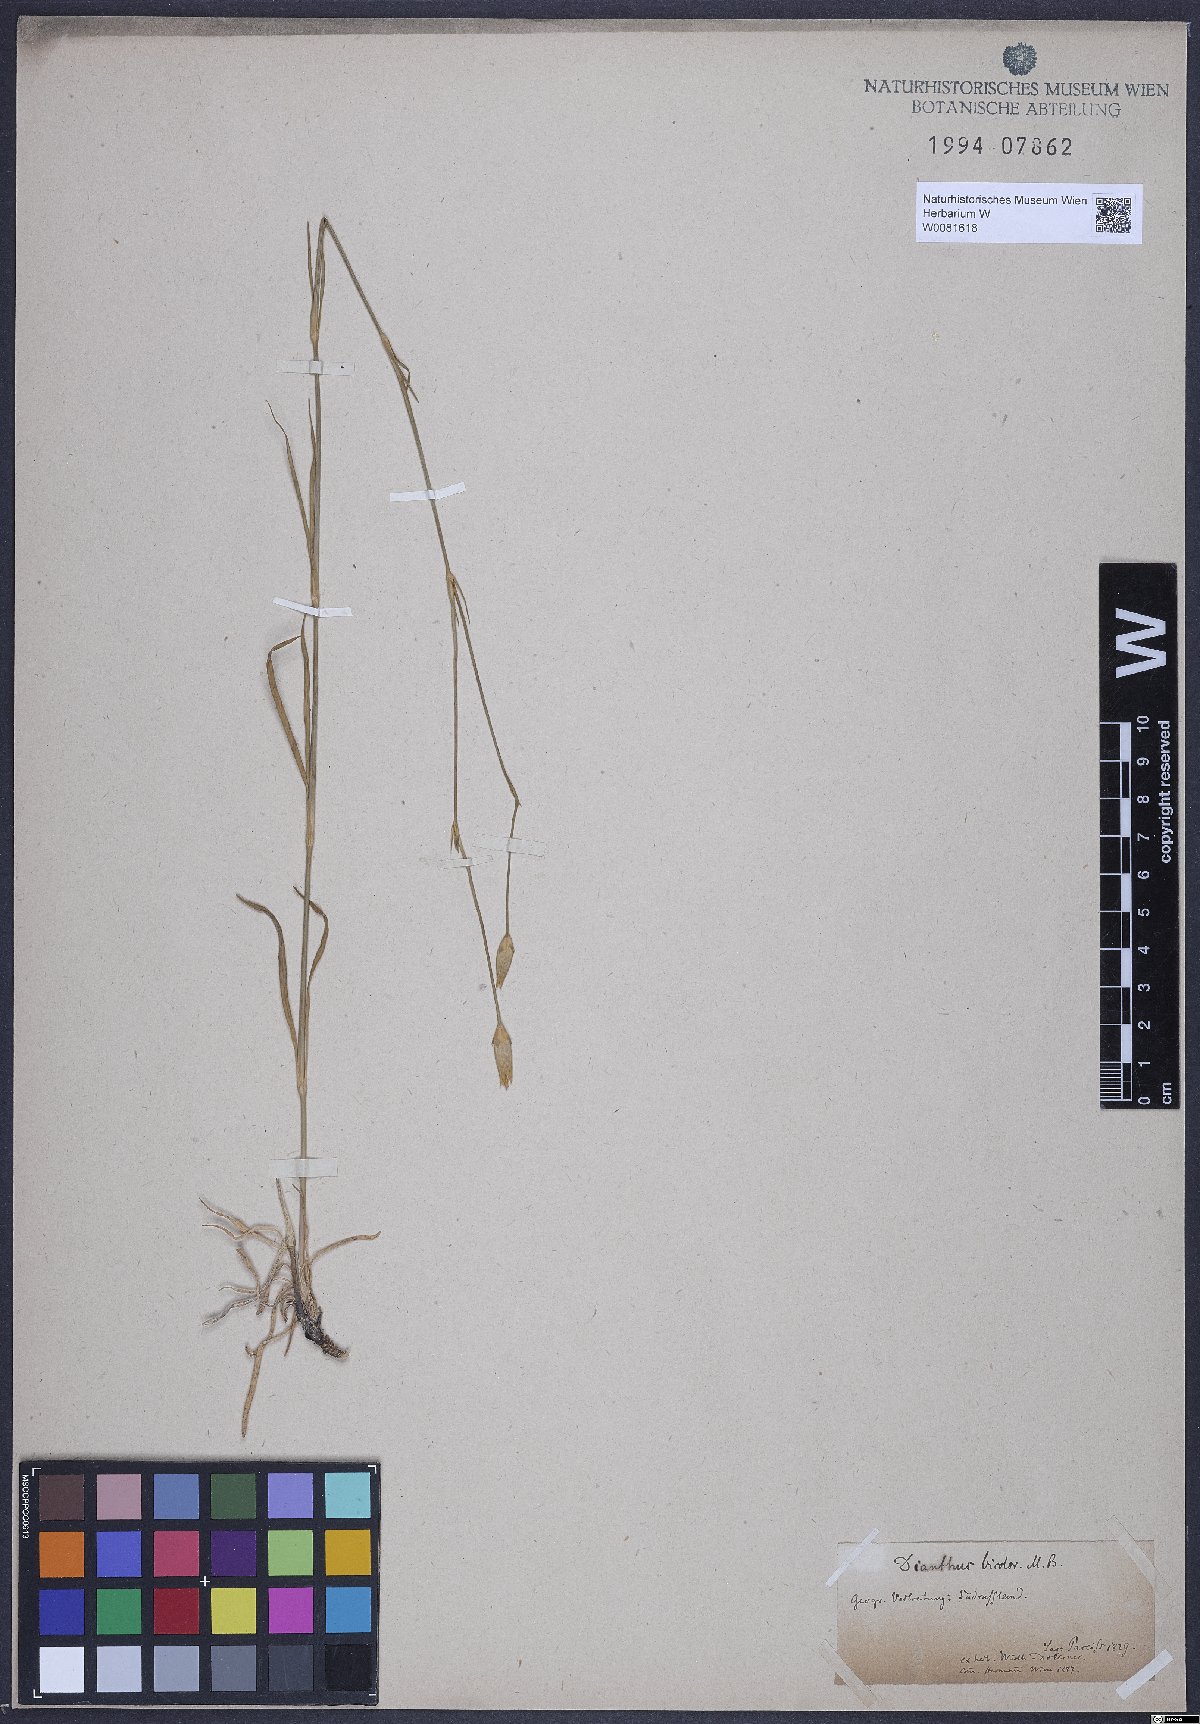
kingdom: Plantae
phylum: Tracheophyta
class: Magnoliopsida
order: Caryophyllales
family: Caryophyllaceae
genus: Dianthus
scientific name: Dianthus bicolor
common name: Bicolour pink
